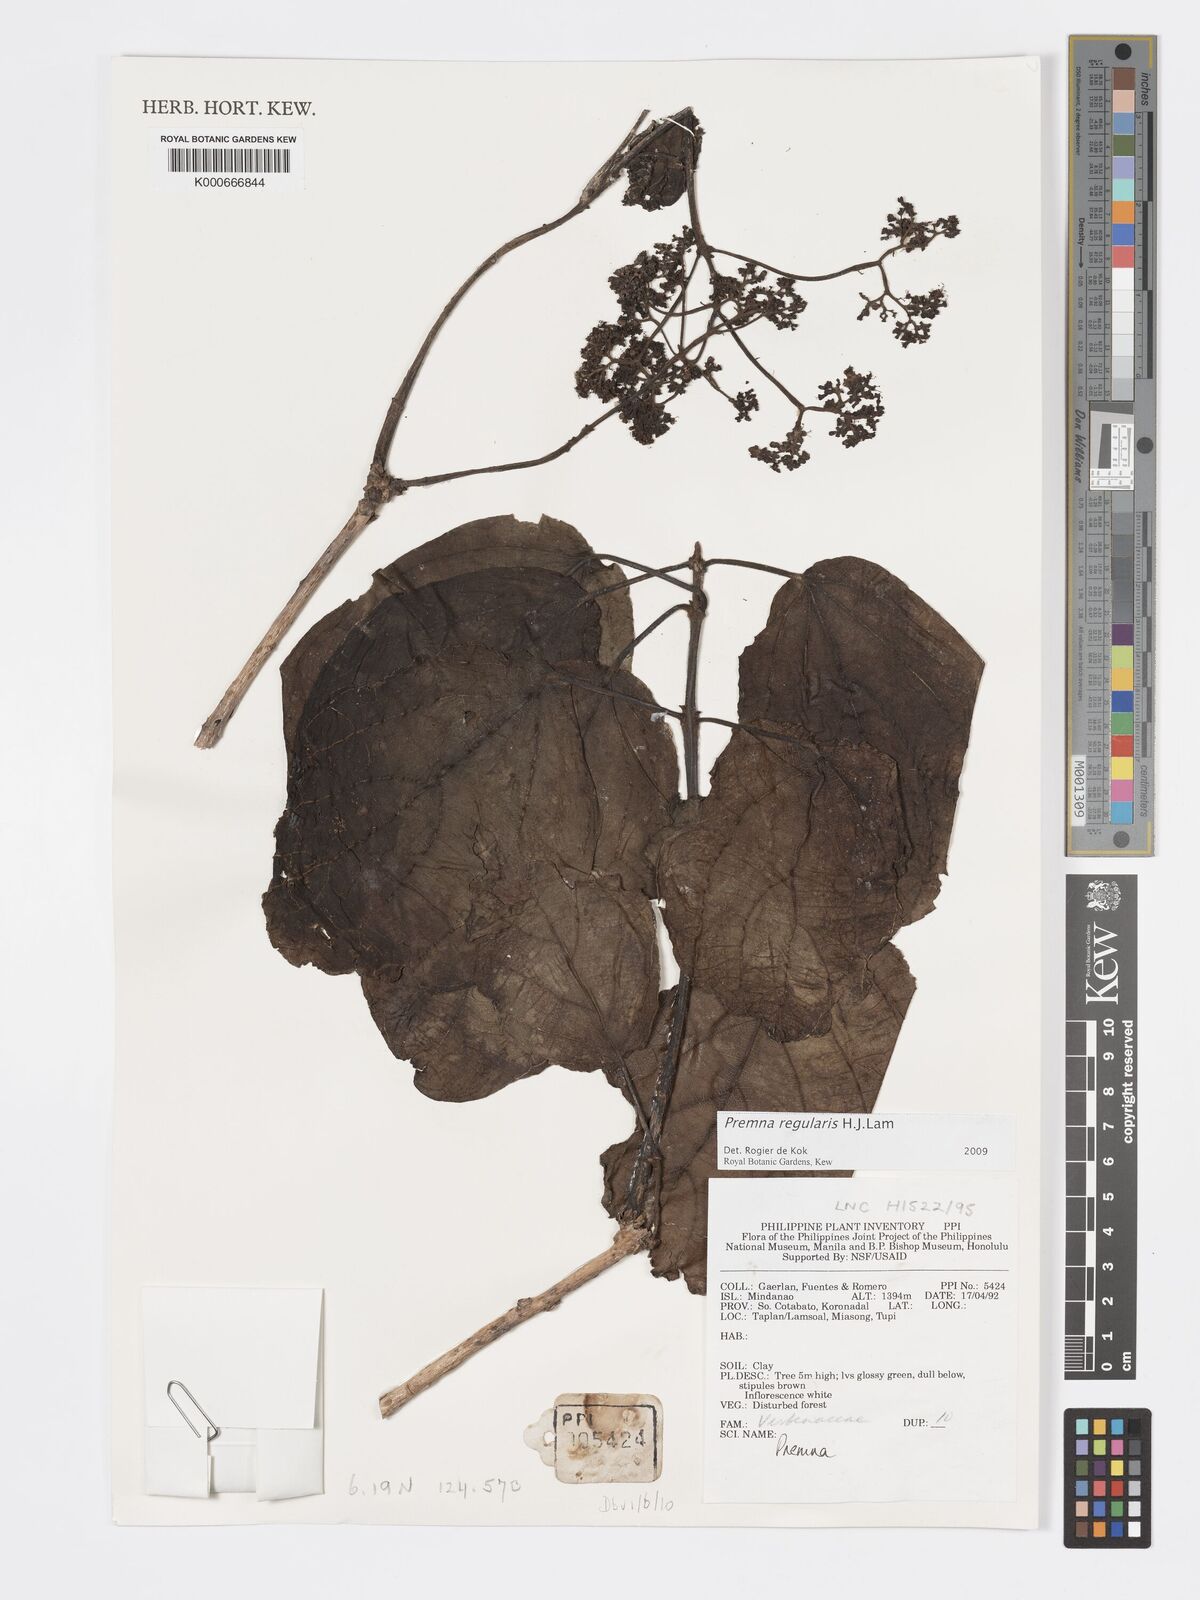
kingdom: Plantae
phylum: Tracheophyta
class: Magnoliopsida
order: Lamiales
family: Lamiaceae
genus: Premna
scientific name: Premna regularis
